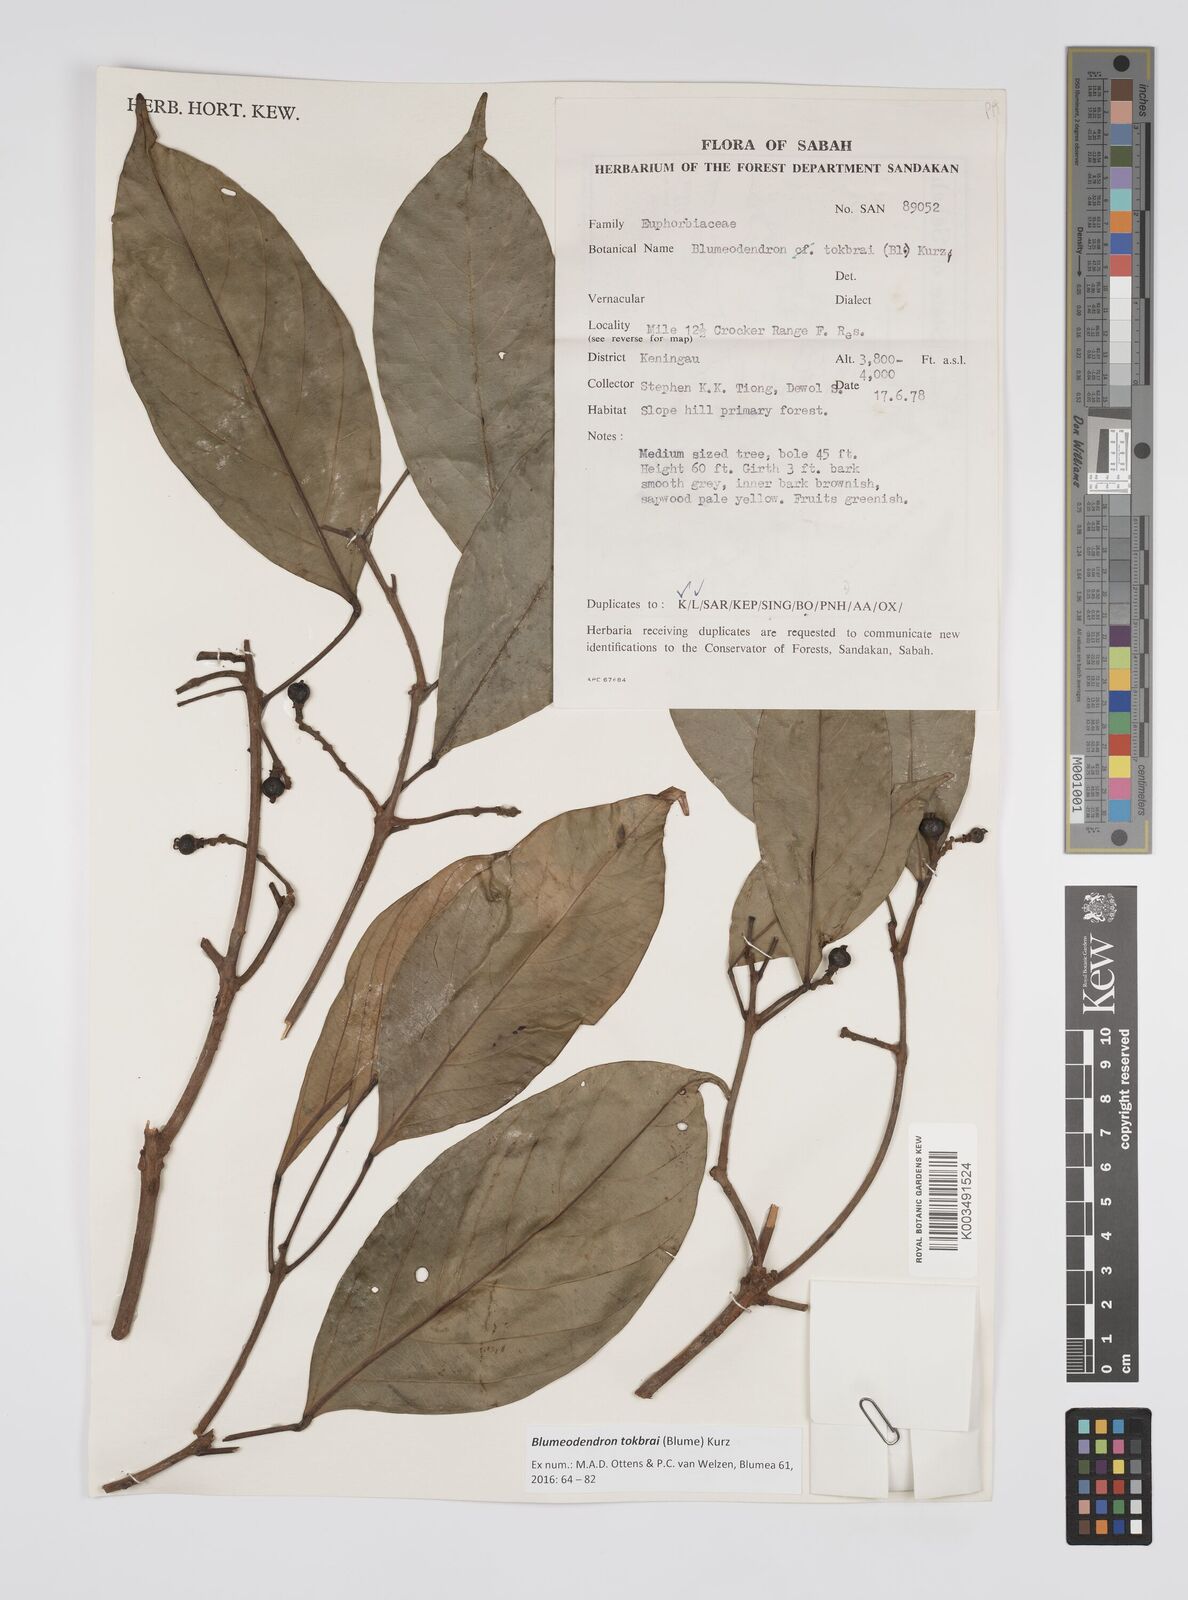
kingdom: Plantae
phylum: Tracheophyta
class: Magnoliopsida
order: Malpighiales
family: Euphorbiaceae
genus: Blumeodendron
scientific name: Blumeodendron tokbrai
